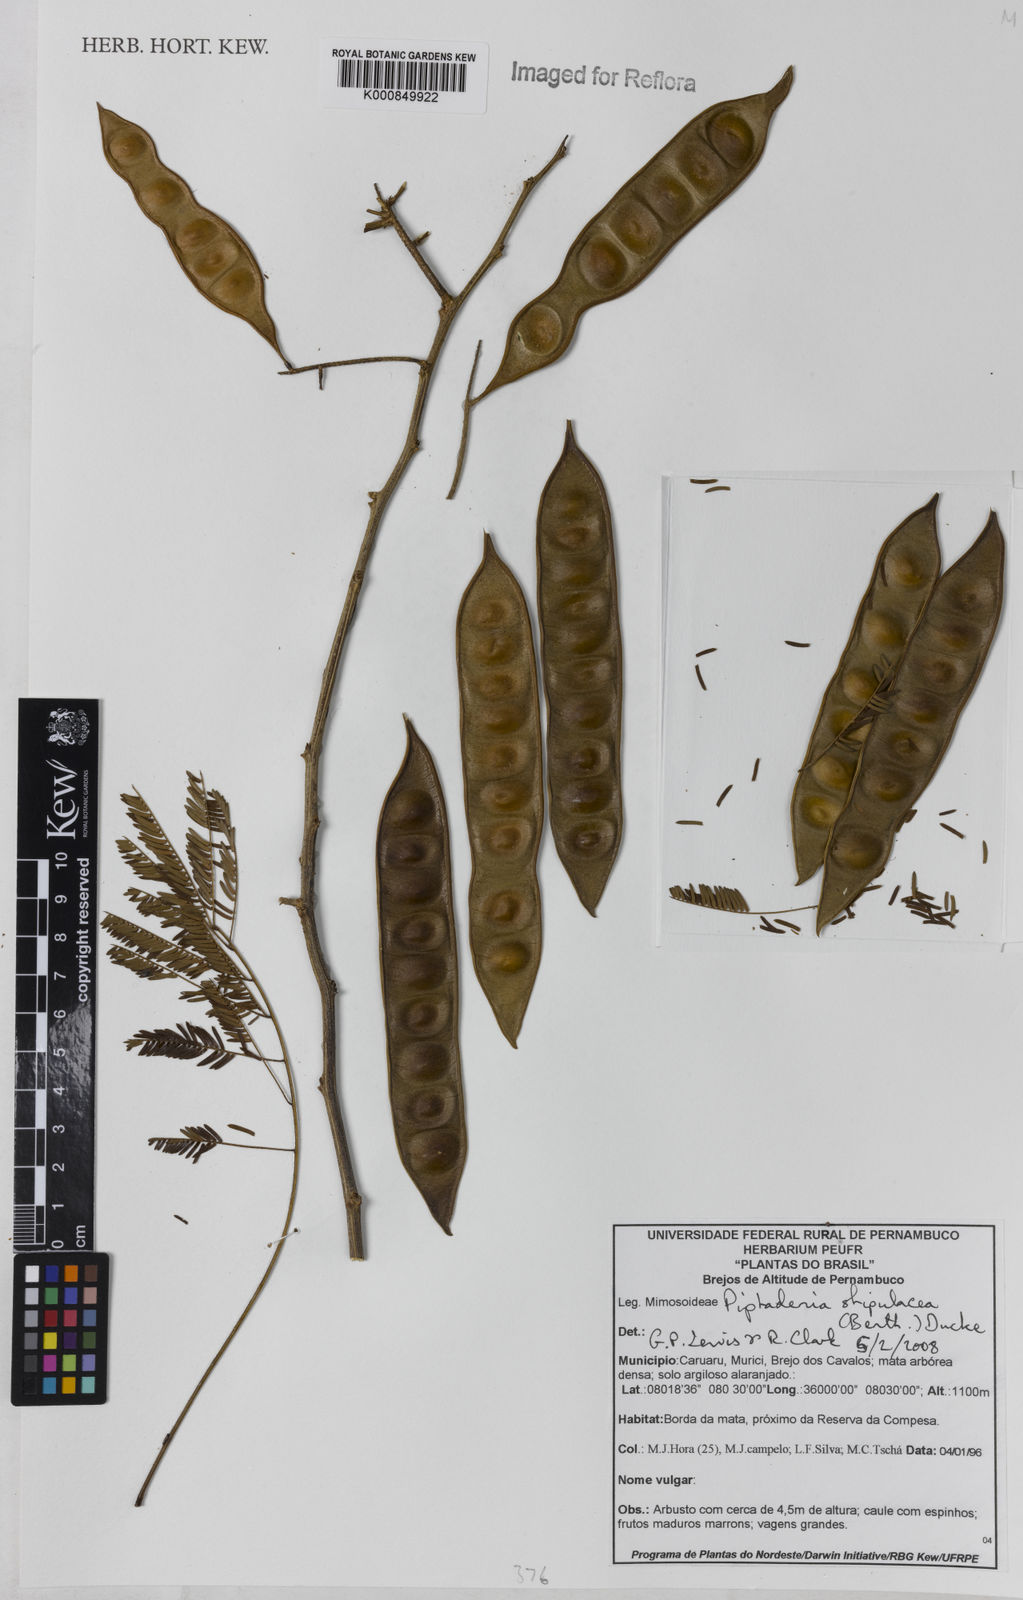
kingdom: Plantae
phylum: Tracheophyta
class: Magnoliopsida
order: Fabales
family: Fabaceae
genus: Piptadenia
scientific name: Piptadenia retusa
